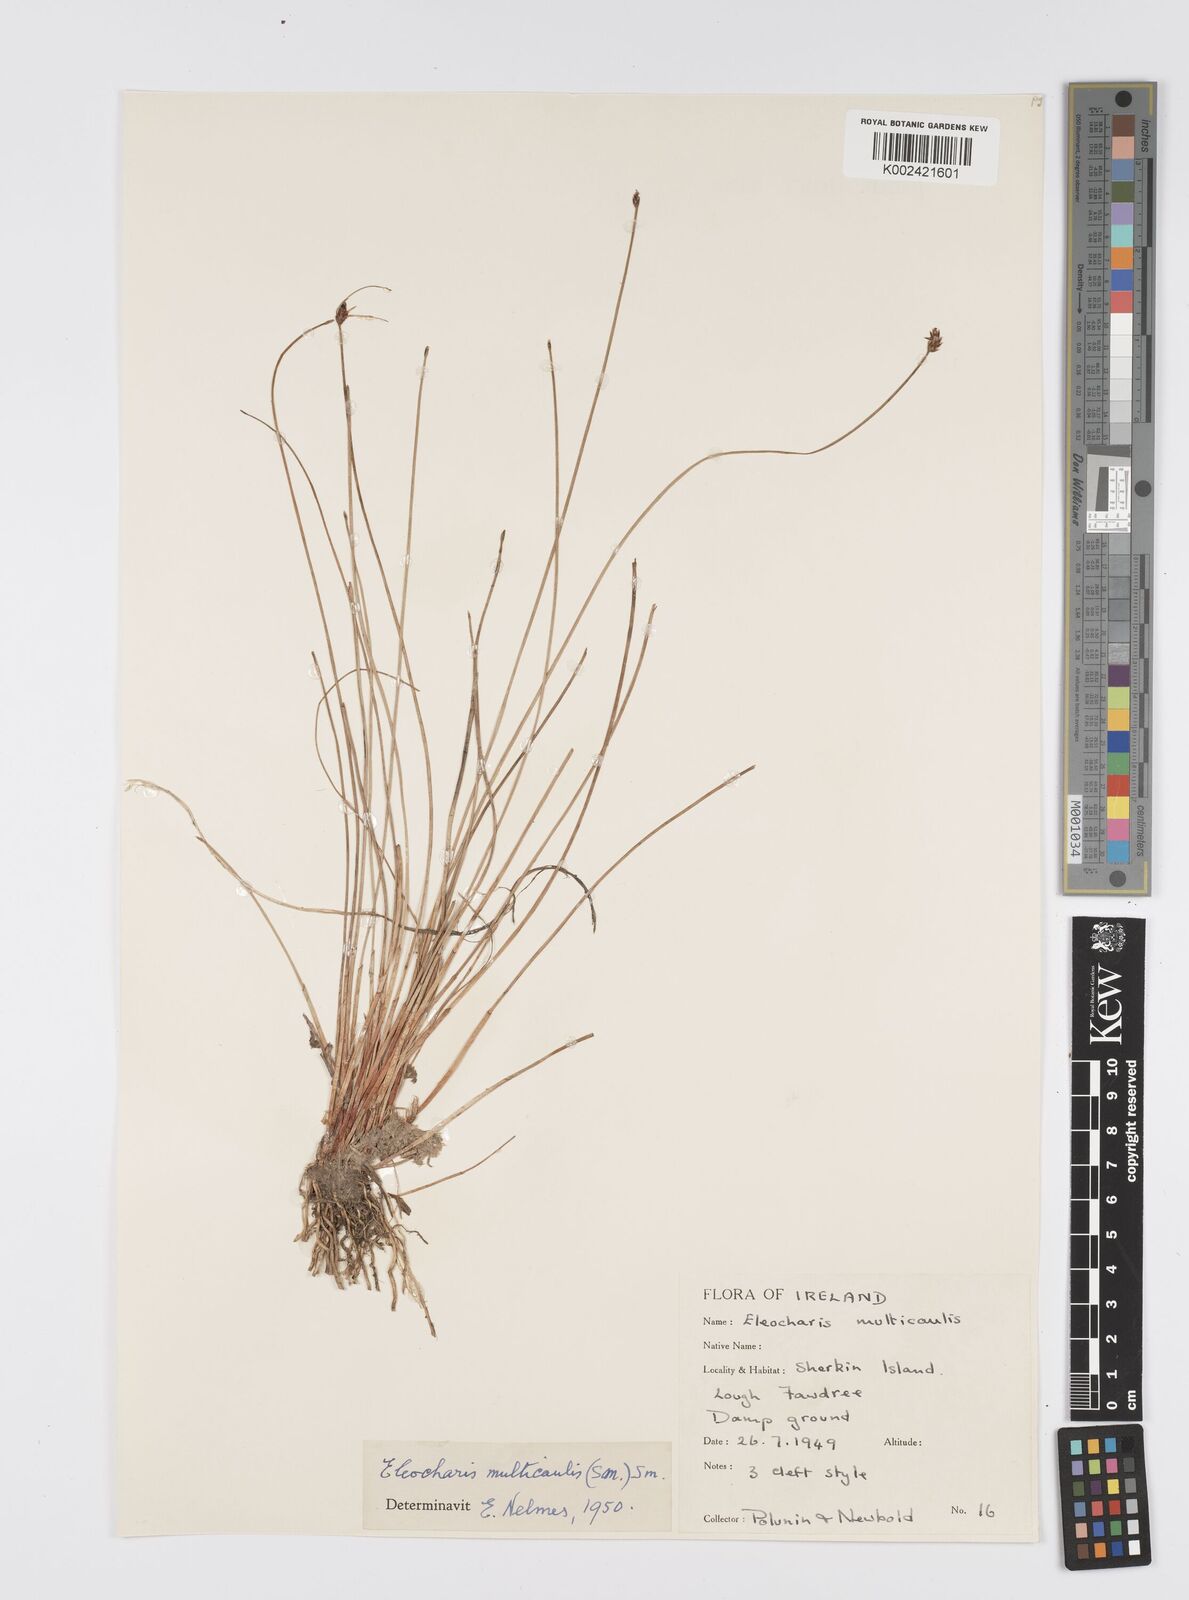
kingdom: Plantae
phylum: Tracheophyta
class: Liliopsida
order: Poales
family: Cyperaceae
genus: Eleocharis
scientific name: Eleocharis multicaulis
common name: Many-stalked spike-rush
